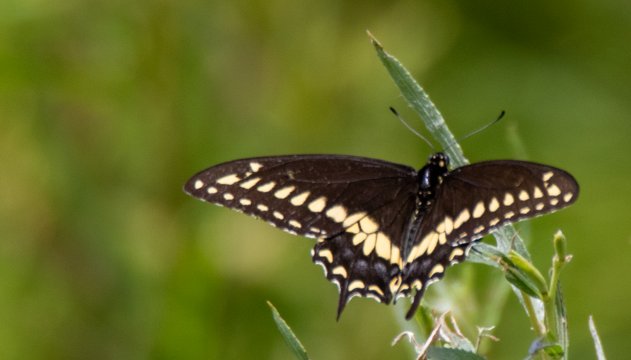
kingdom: Animalia
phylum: Arthropoda
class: Insecta
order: Lepidoptera
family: Papilionidae
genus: Papilio
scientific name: Papilio polyxenes
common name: Black Swallowtail
